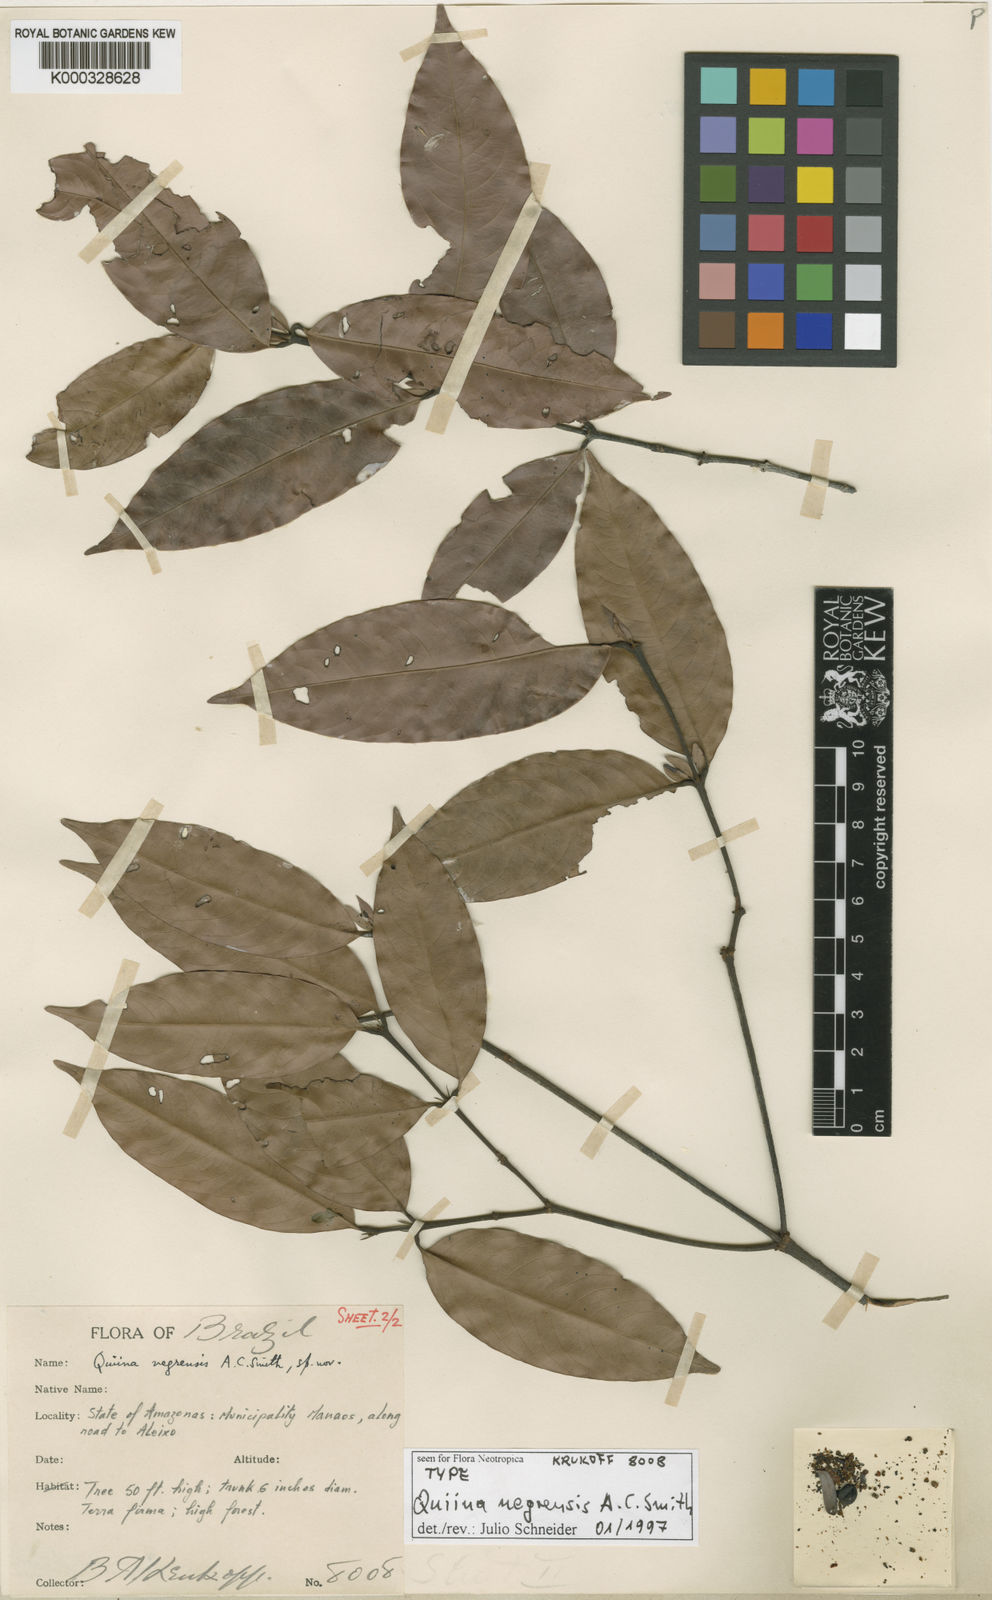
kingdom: Plantae
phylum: Tracheophyta
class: Magnoliopsida
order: Malpighiales
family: Quiinaceae
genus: Quiina
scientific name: Quiina negrensis
